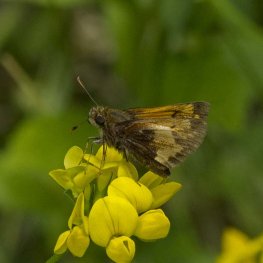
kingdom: Animalia
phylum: Arthropoda
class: Insecta
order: Lepidoptera
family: Hesperiidae
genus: Lon
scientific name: Lon hobomok
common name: Hobomok Skipper
